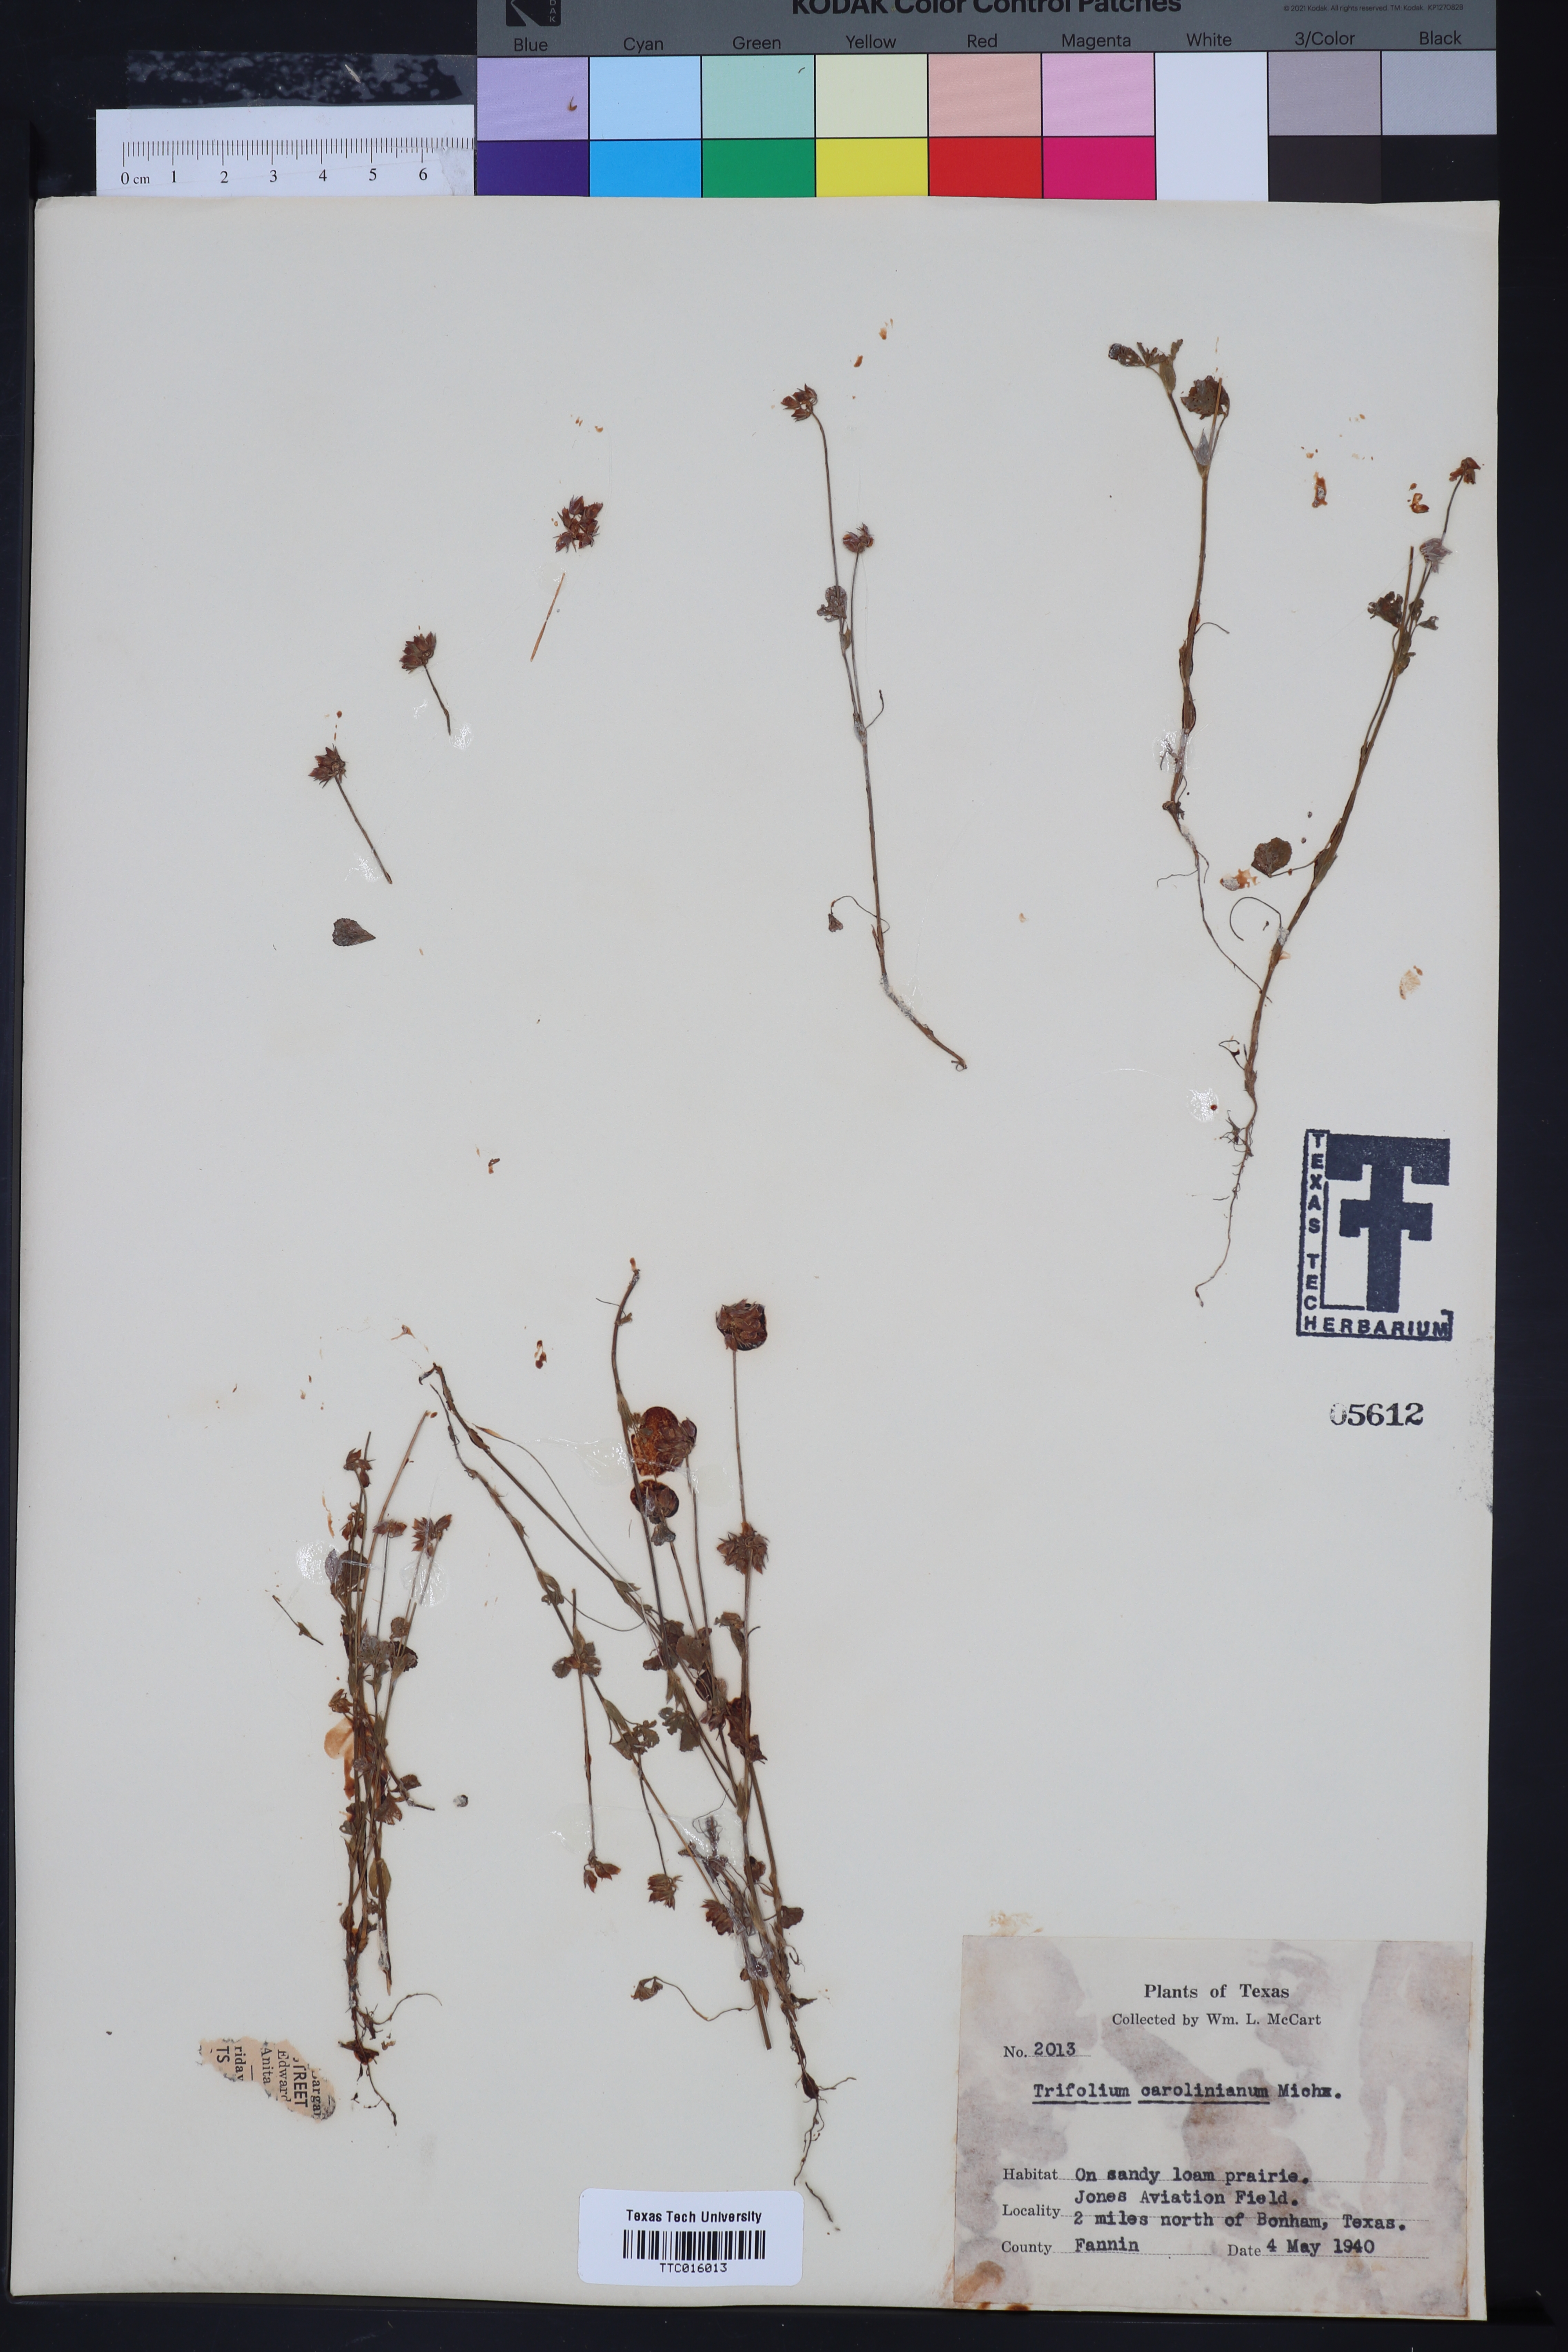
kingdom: Plantae
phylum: Tracheophyta
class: Magnoliopsida
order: Fabales
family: Fabaceae
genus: Trifolium
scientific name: Trifolium carolinianum
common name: Wild white clover
